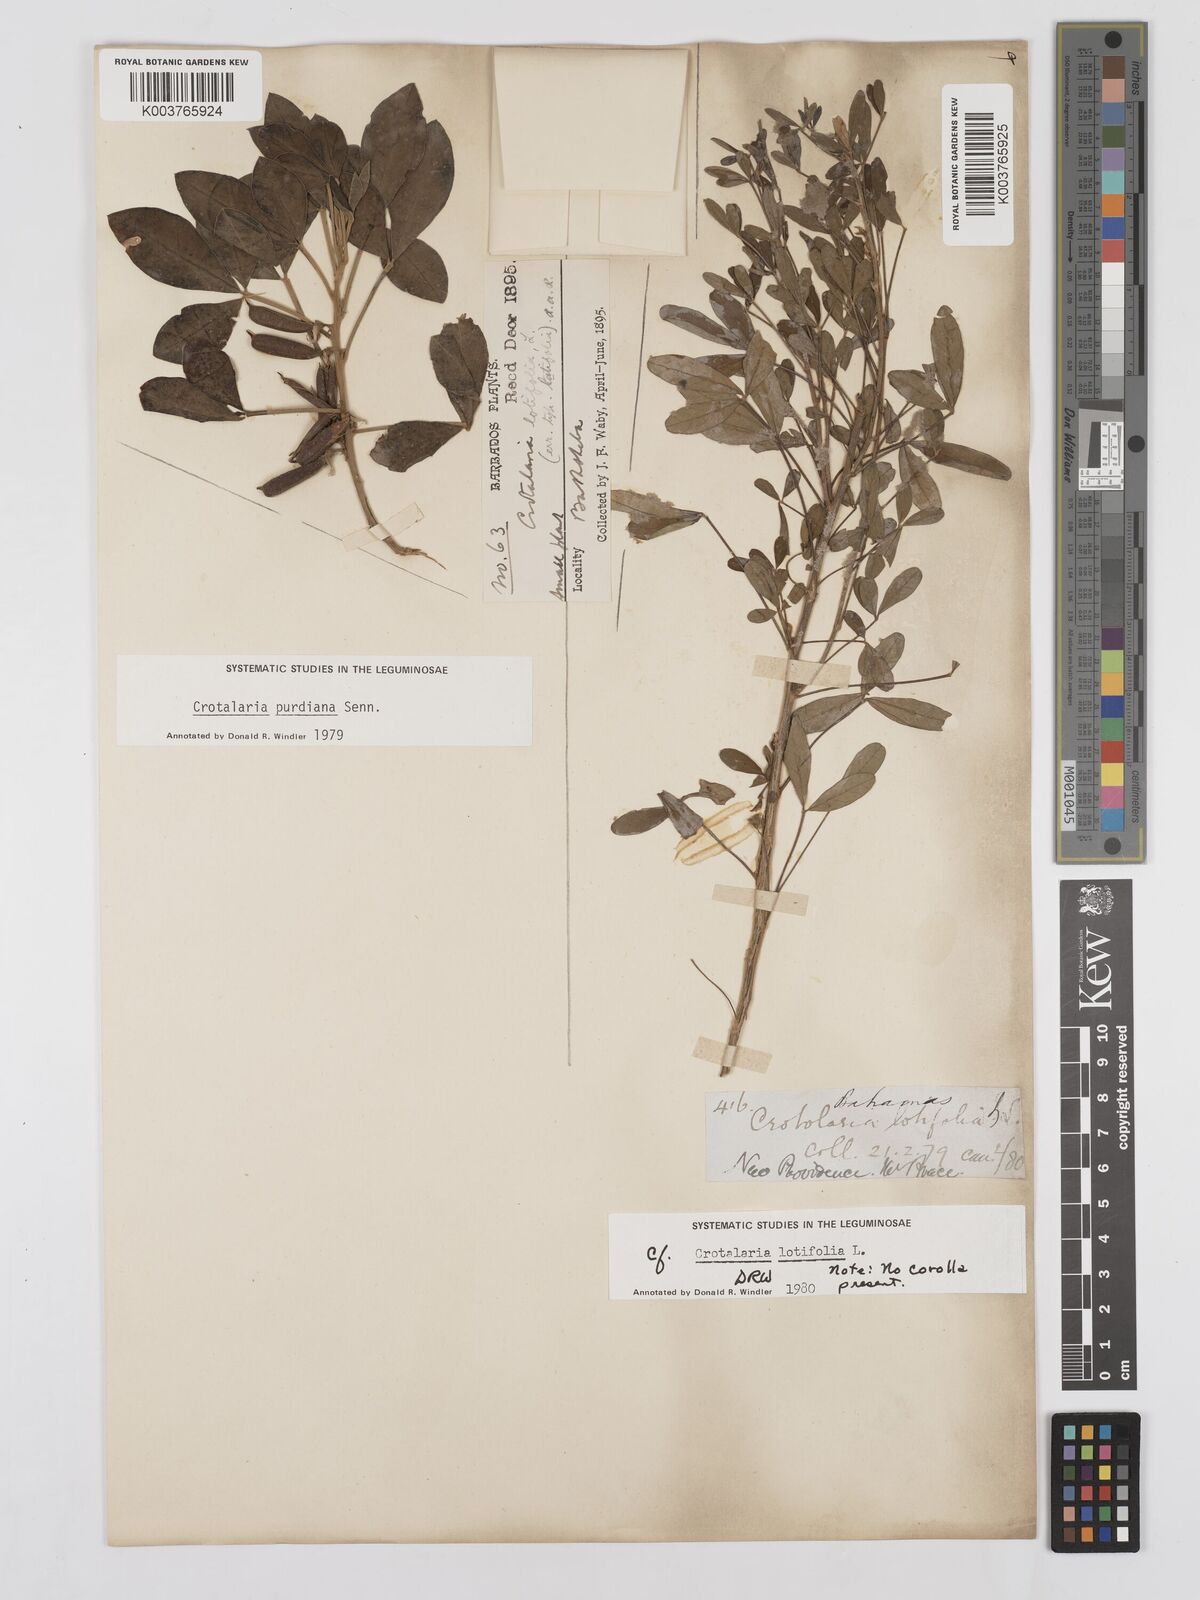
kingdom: Plantae
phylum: Tracheophyta
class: Magnoliopsida
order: Fabales
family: Fabaceae
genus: Crotalaria
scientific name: Crotalaria purdieana
